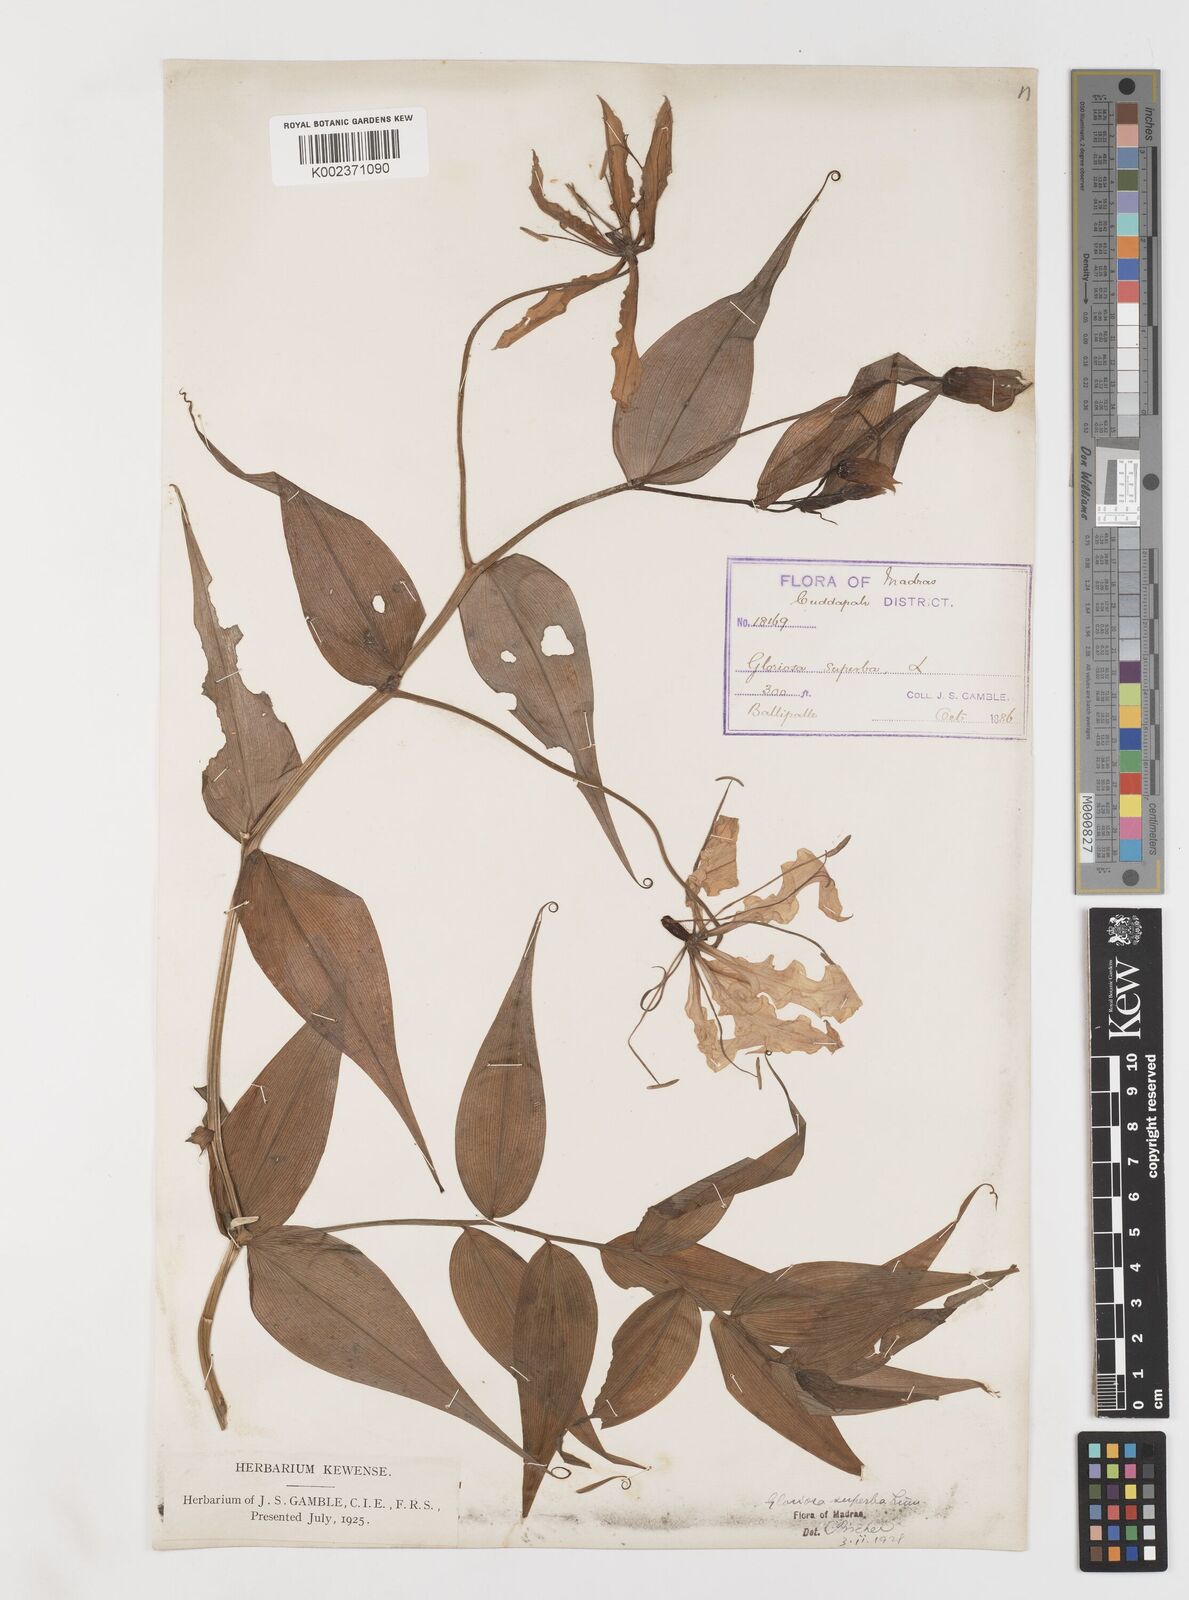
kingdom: Plantae
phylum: Tracheophyta
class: Liliopsida
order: Liliales
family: Colchicaceae
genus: Gloriosa
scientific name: Gloriosa superba
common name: Flame lily
